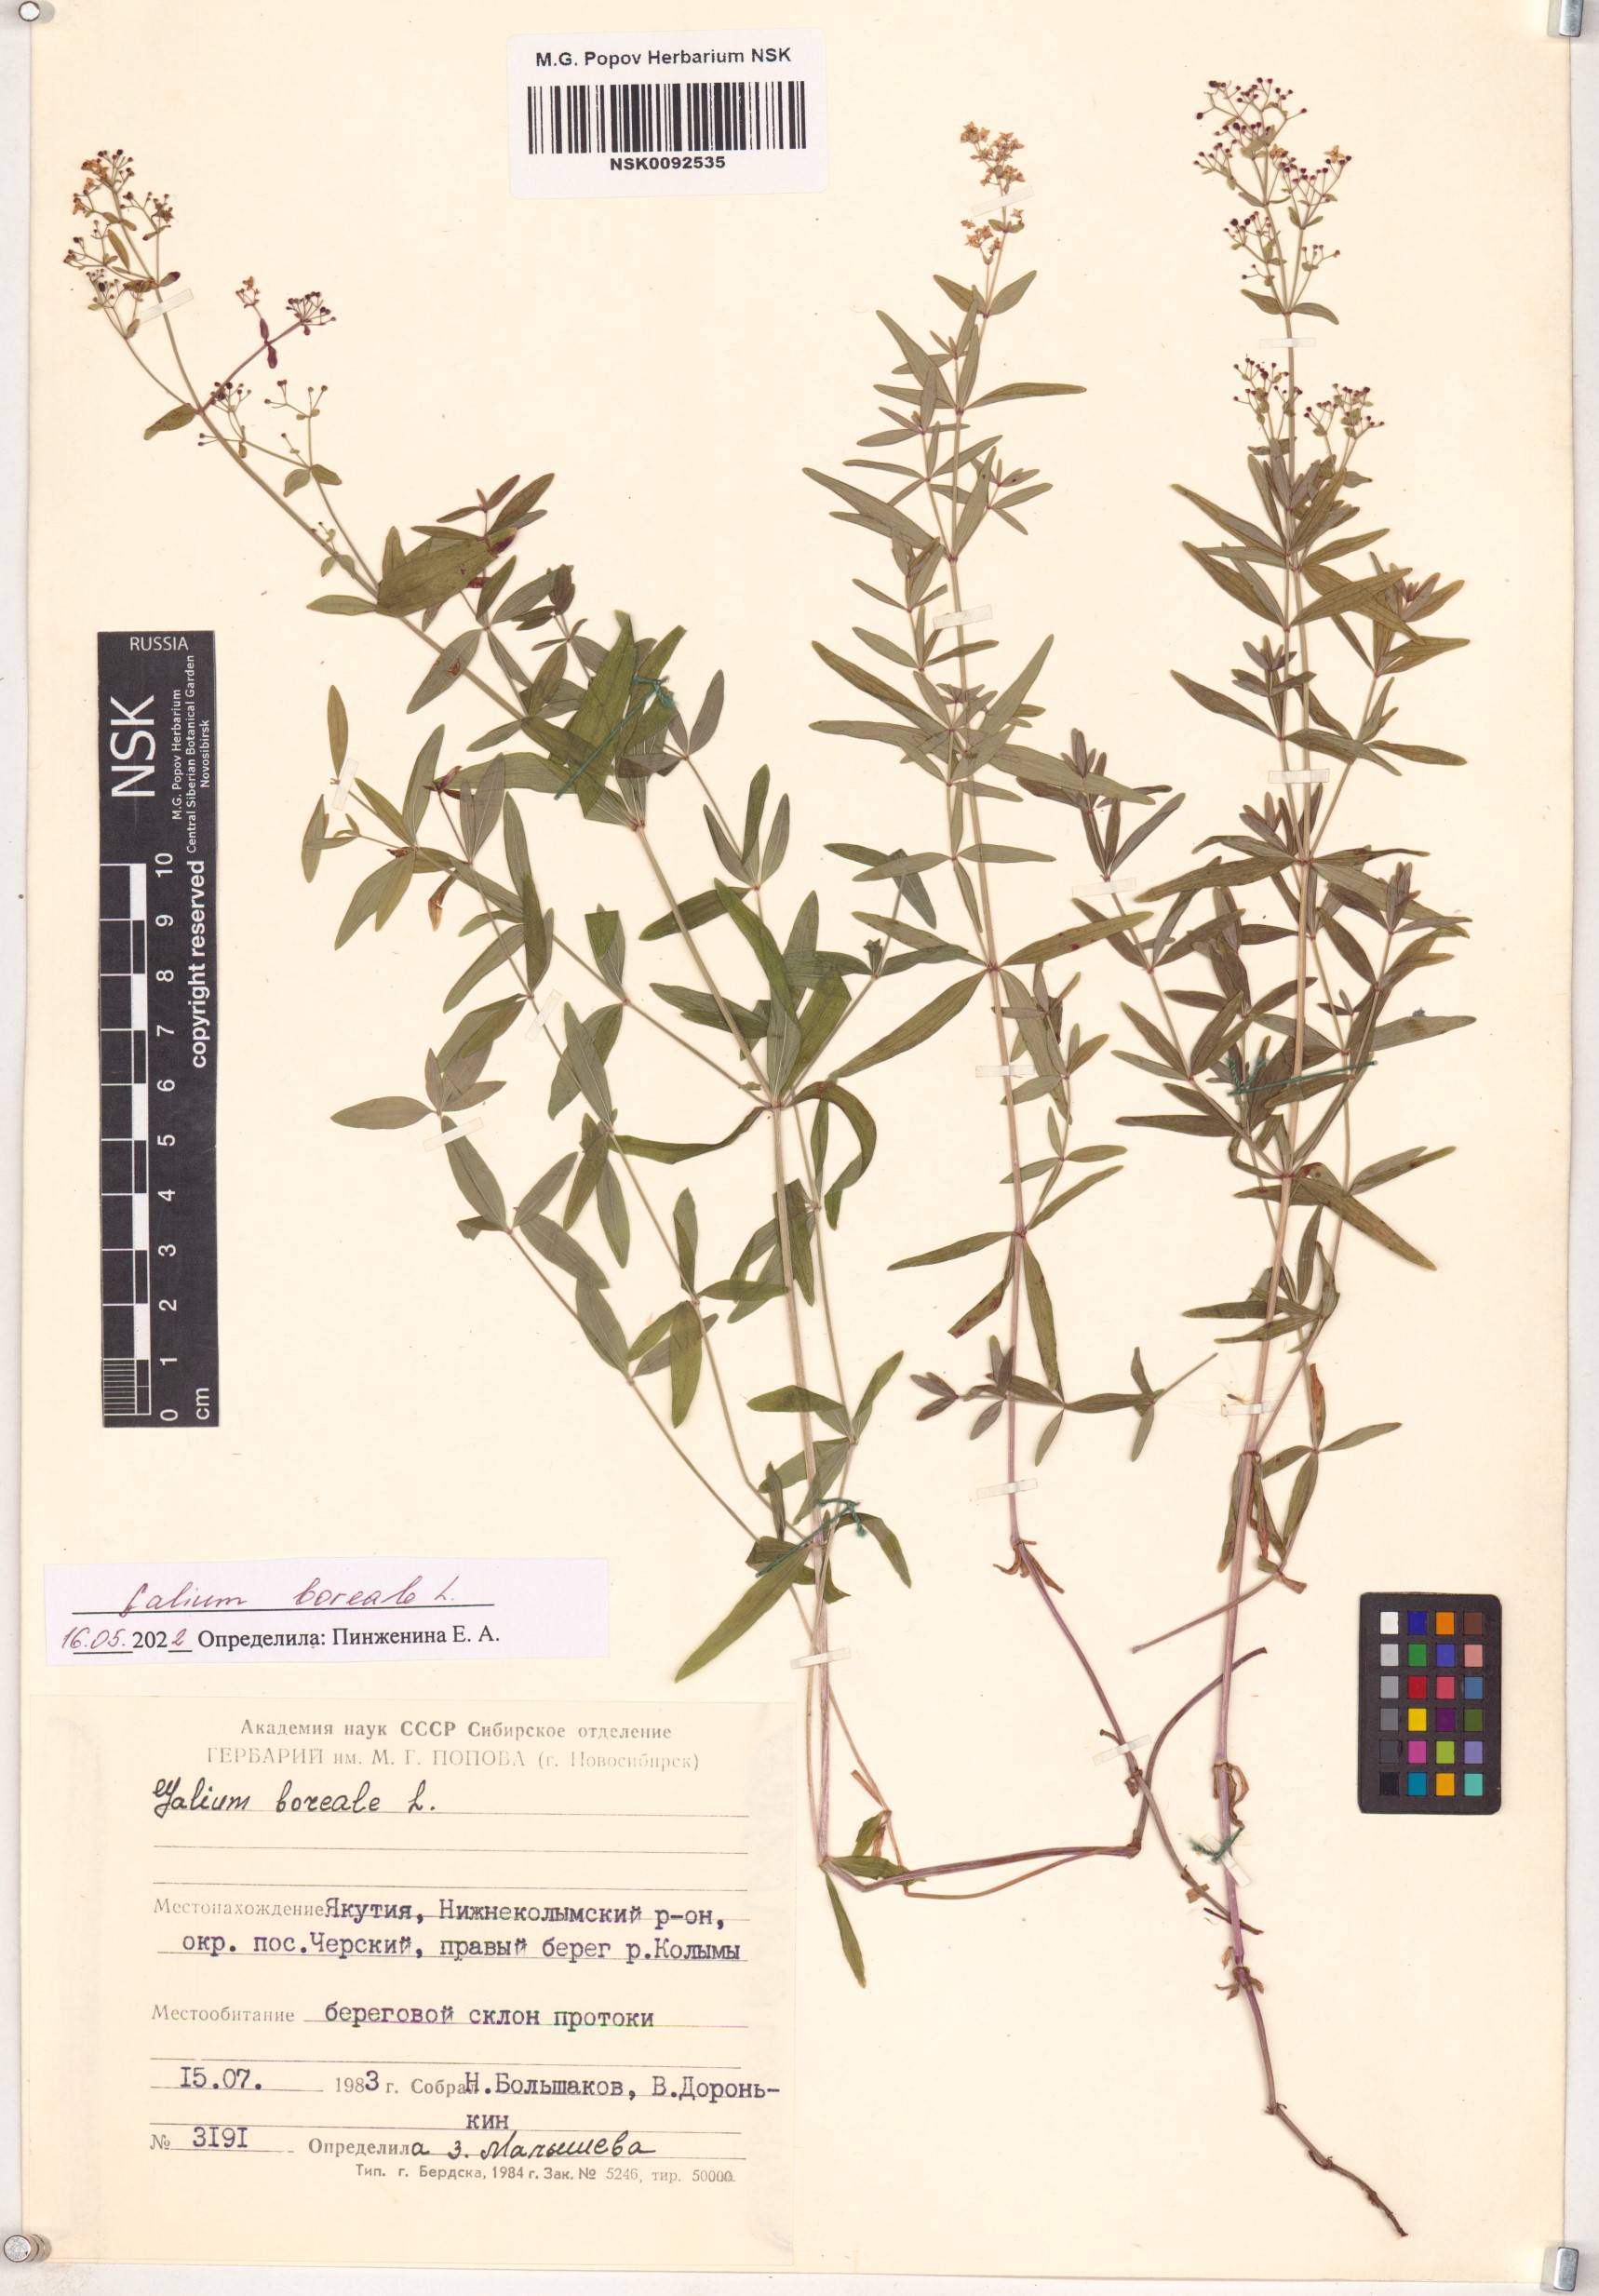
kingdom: Plantae
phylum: Tracheophyta
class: Magnoliopsida
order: Gentianales
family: Rubiaceae
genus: Galium
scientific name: Galium boreale
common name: Northern bedstraw
